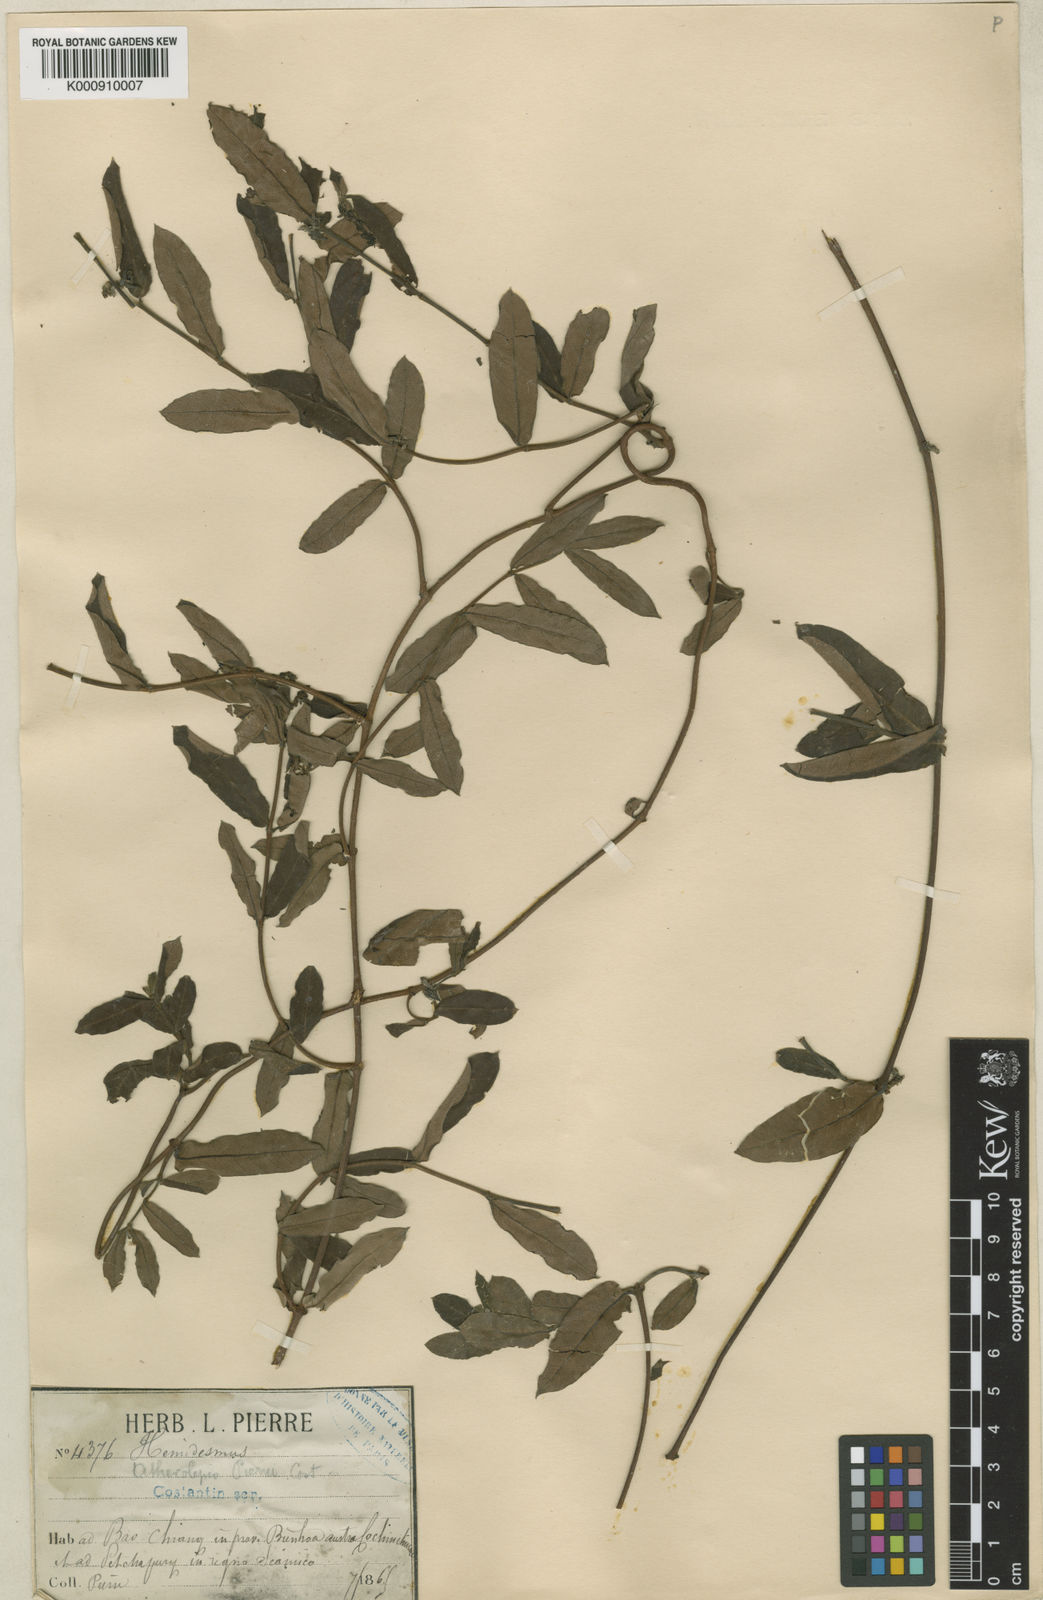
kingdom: Plantae
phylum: Tracheophyta
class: Magnoliopsida
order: Gentianales
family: Apocynaceae
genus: Finlaysonia
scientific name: Finlaysonia pierrei
